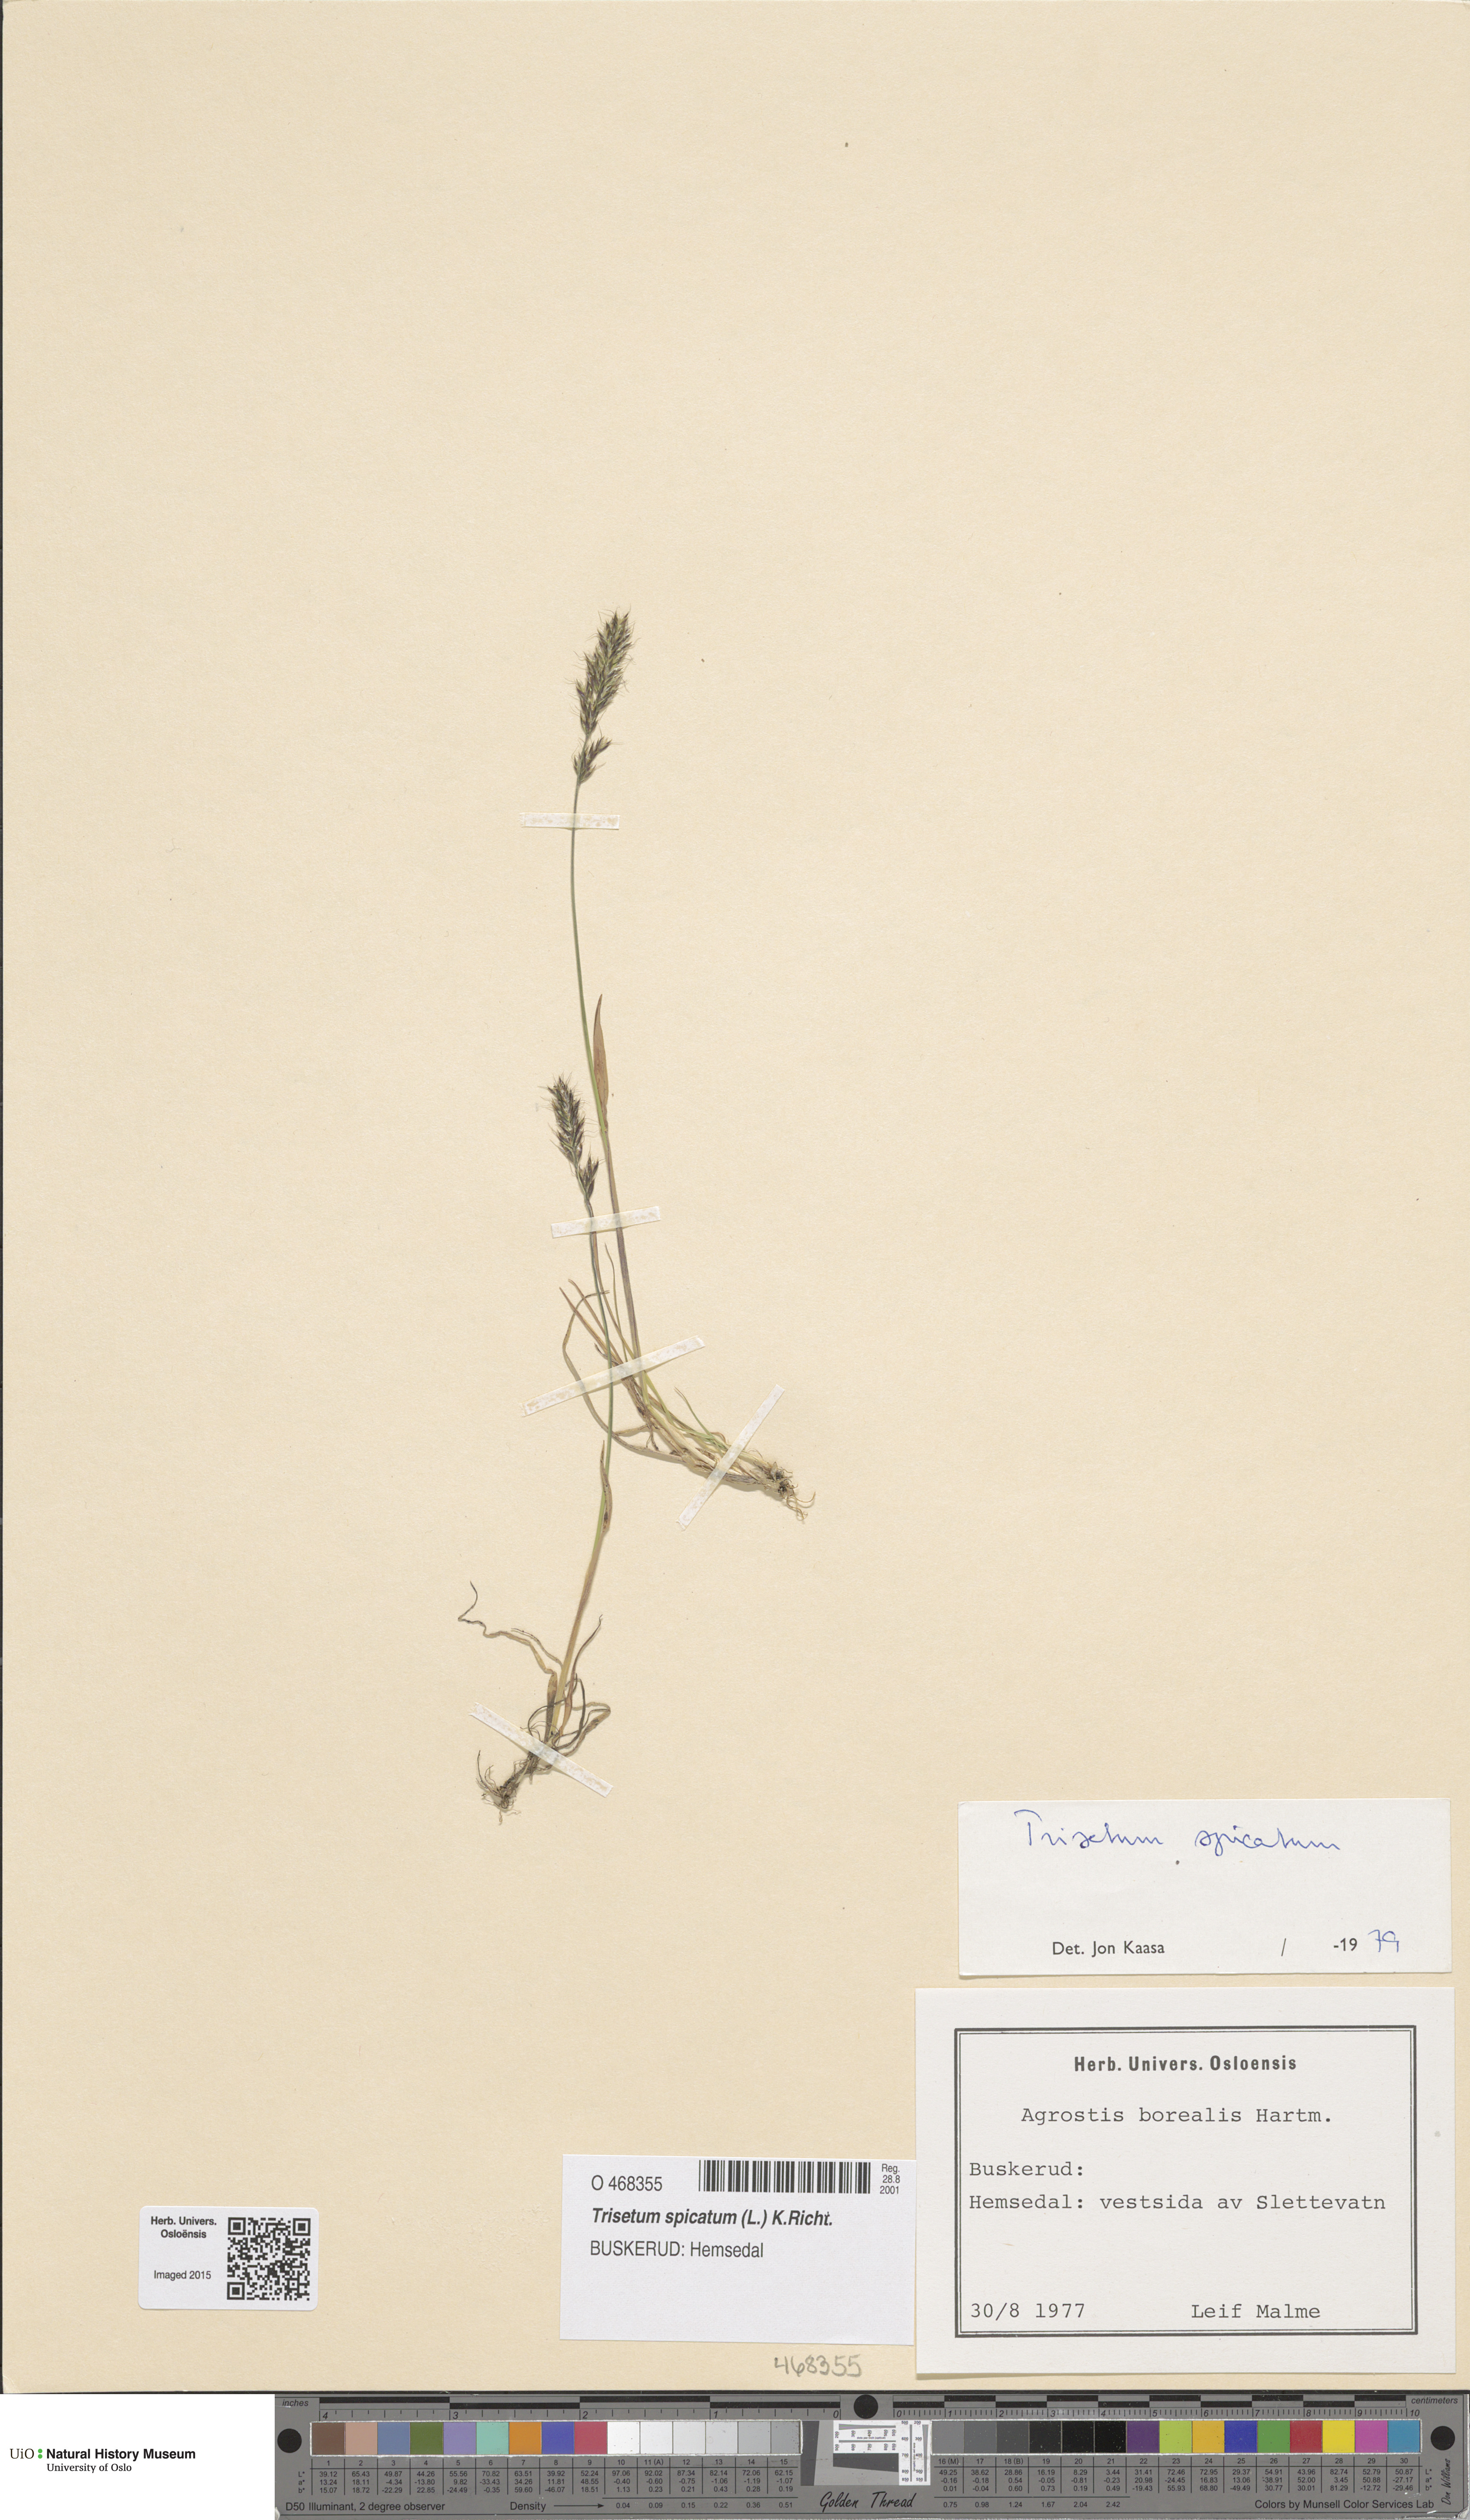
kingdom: Plantae
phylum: Tracheophyta
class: Liliopsida
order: Poales
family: Poaceae
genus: Koeleria
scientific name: Koeleria spicata
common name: Mountain trisetum
